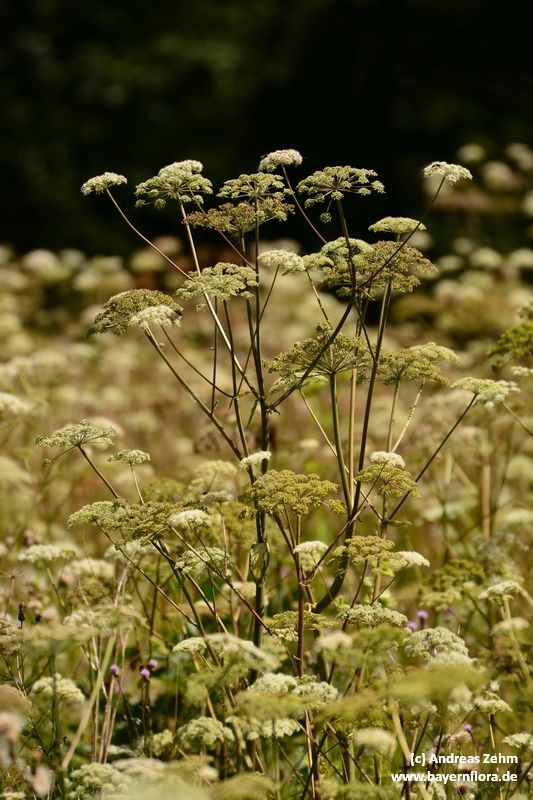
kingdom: Plantae
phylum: Tracheophyta
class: Magnoliopsida
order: Apiales
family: Apiaceae
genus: Angelica
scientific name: Angelica sylvestris
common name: Wild angelica
